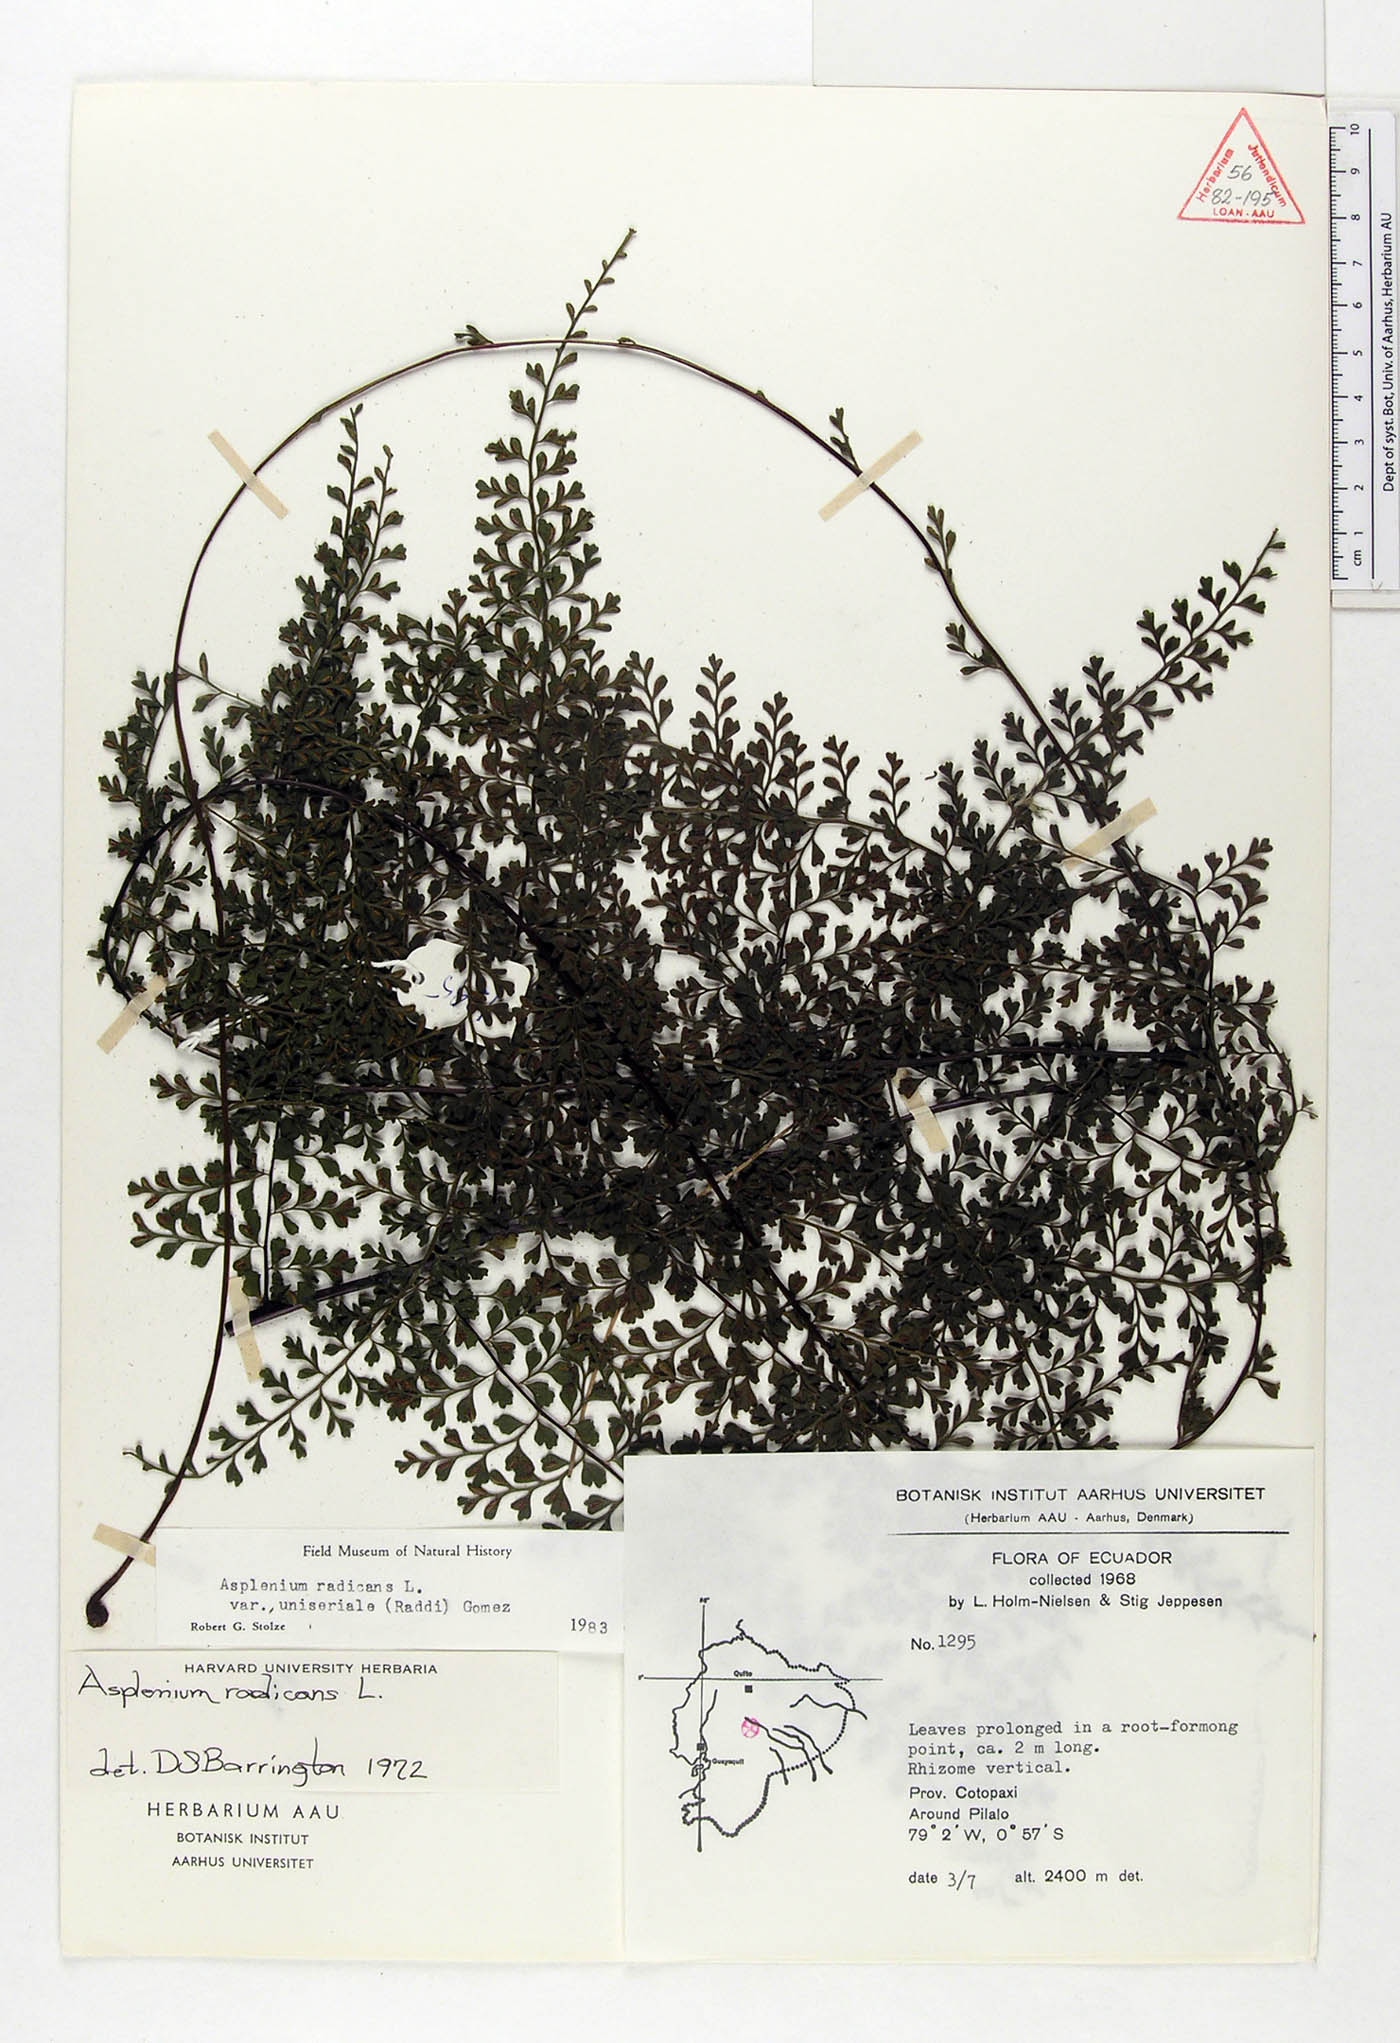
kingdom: Plantae
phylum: Tracheophyta
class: Polypodiopsida
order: Polypodiales
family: Aspleniaceae
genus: Asplenium
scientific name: Asplenium uniseriale
